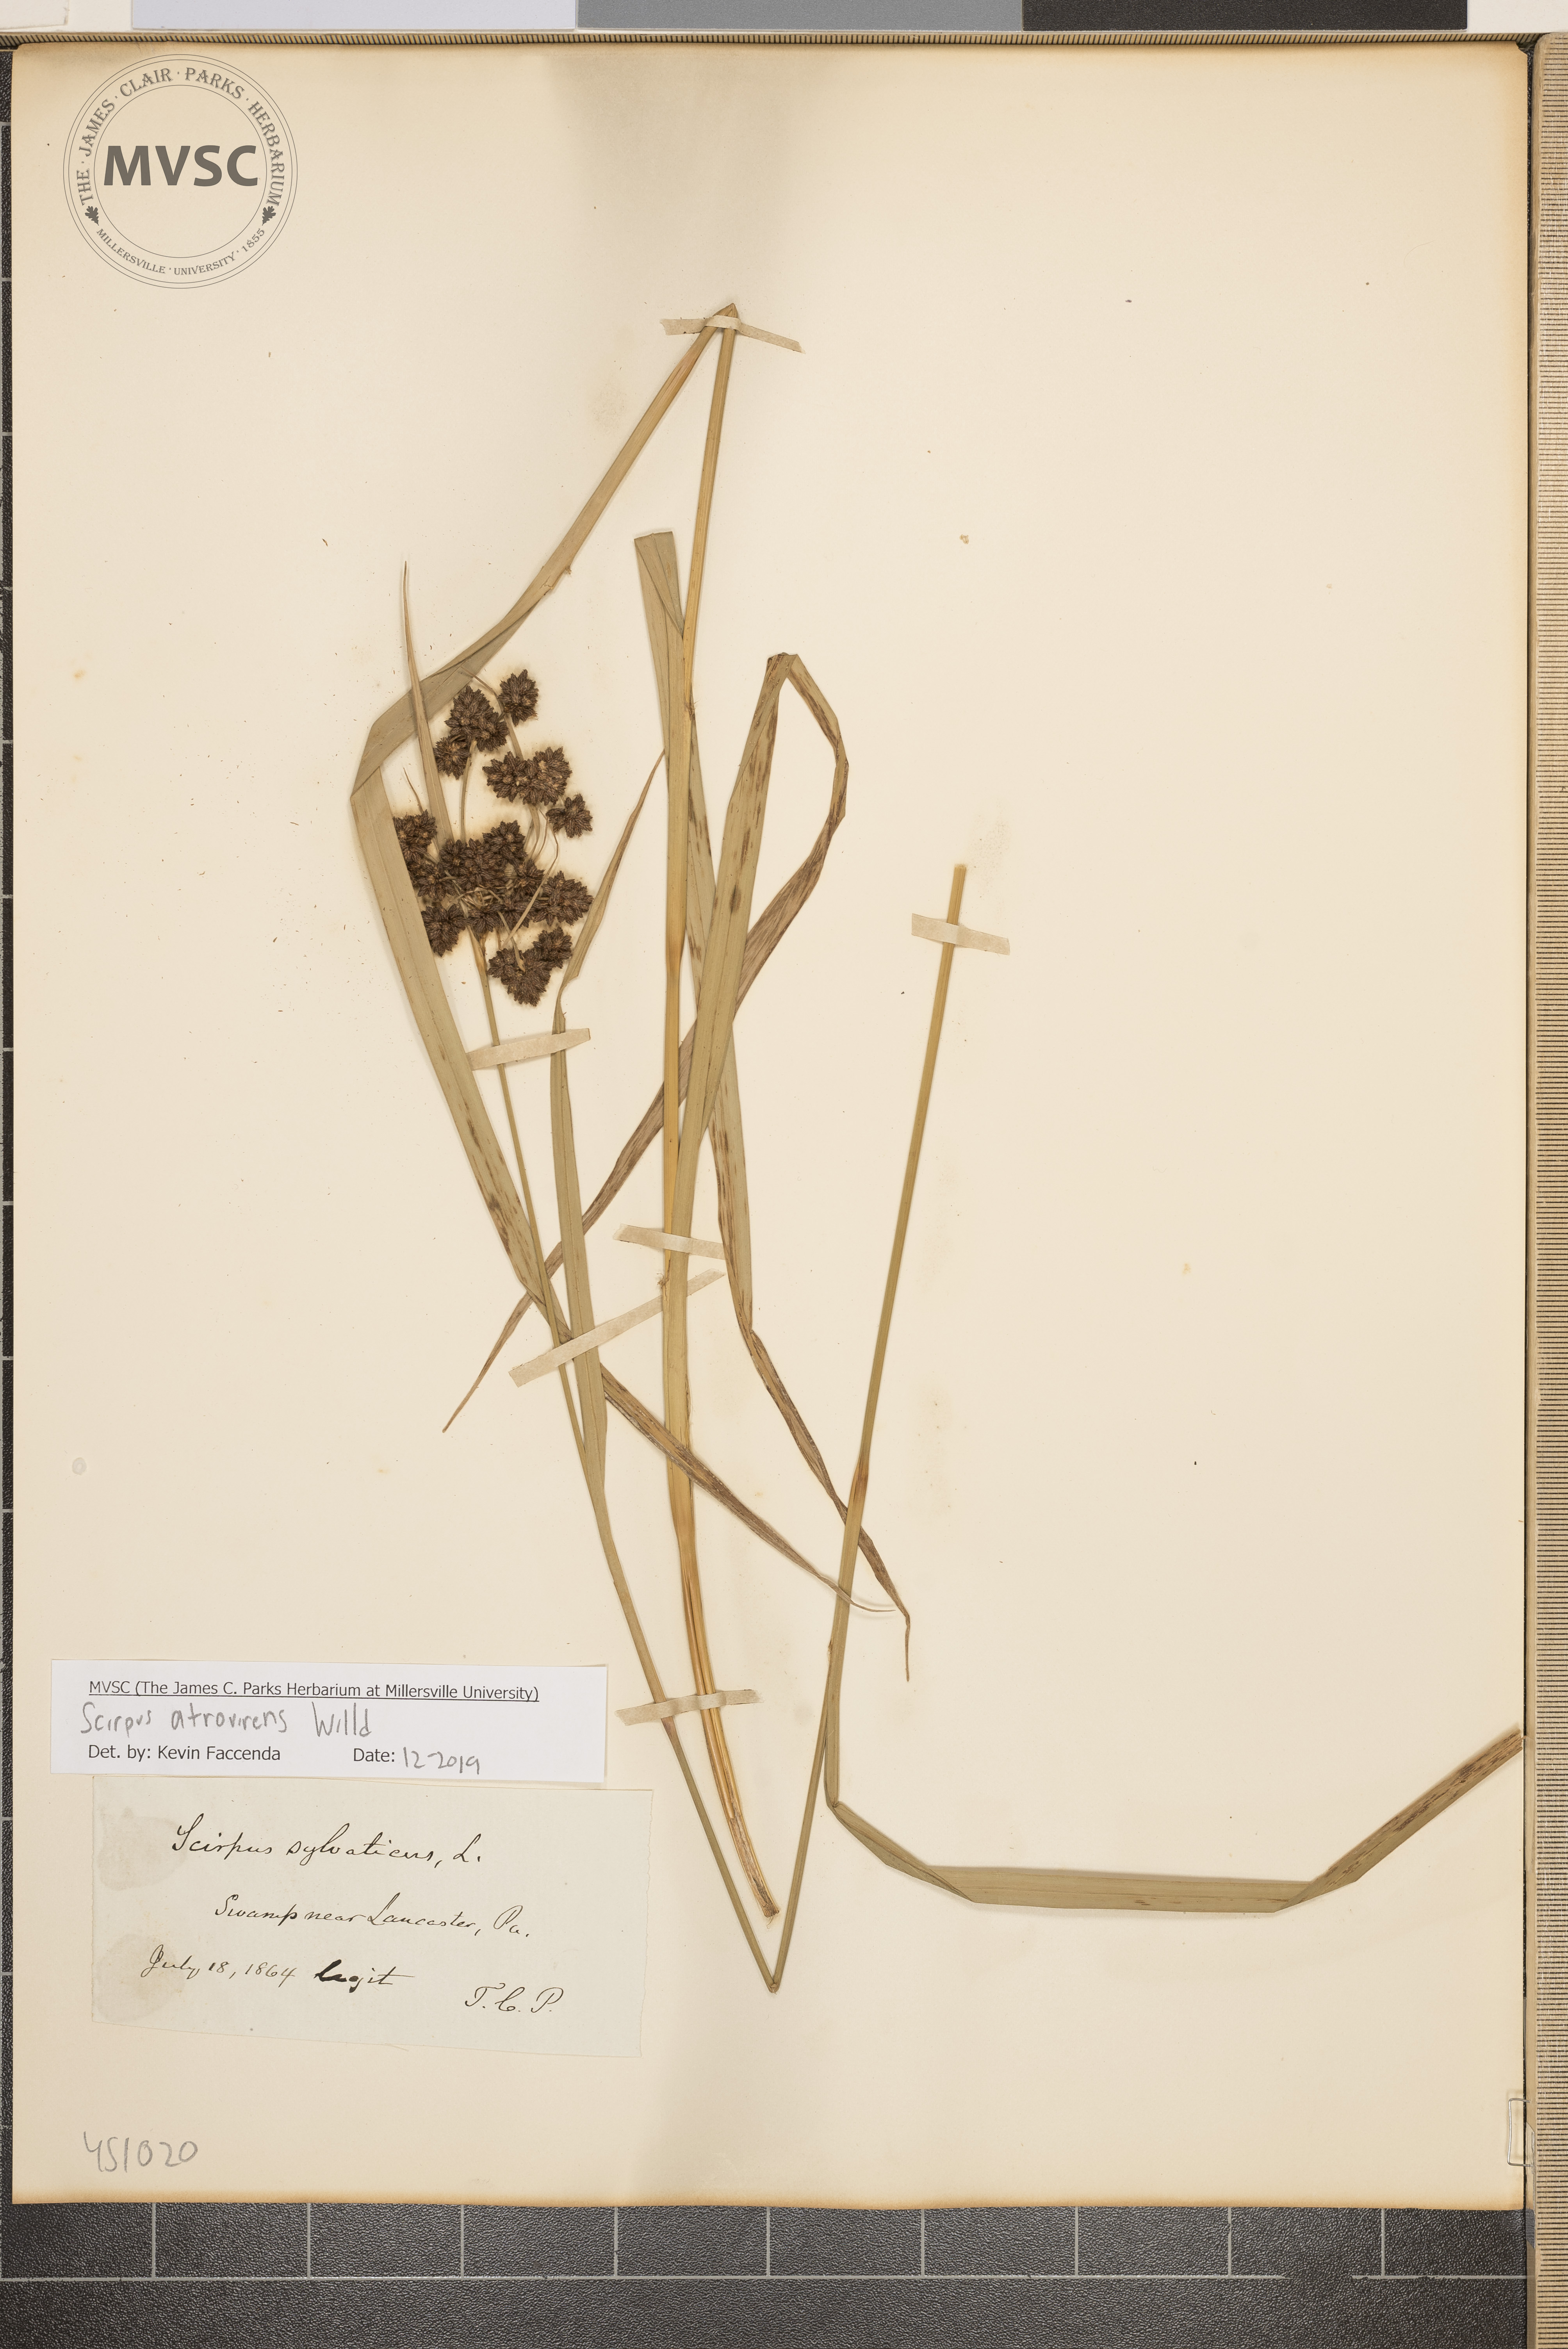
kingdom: Plantae
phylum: Tracheophyta
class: Liliopsida
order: Poales
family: Cyperaceae
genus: Scirpus
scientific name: Scirpus atrovirens
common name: Black bulrush
